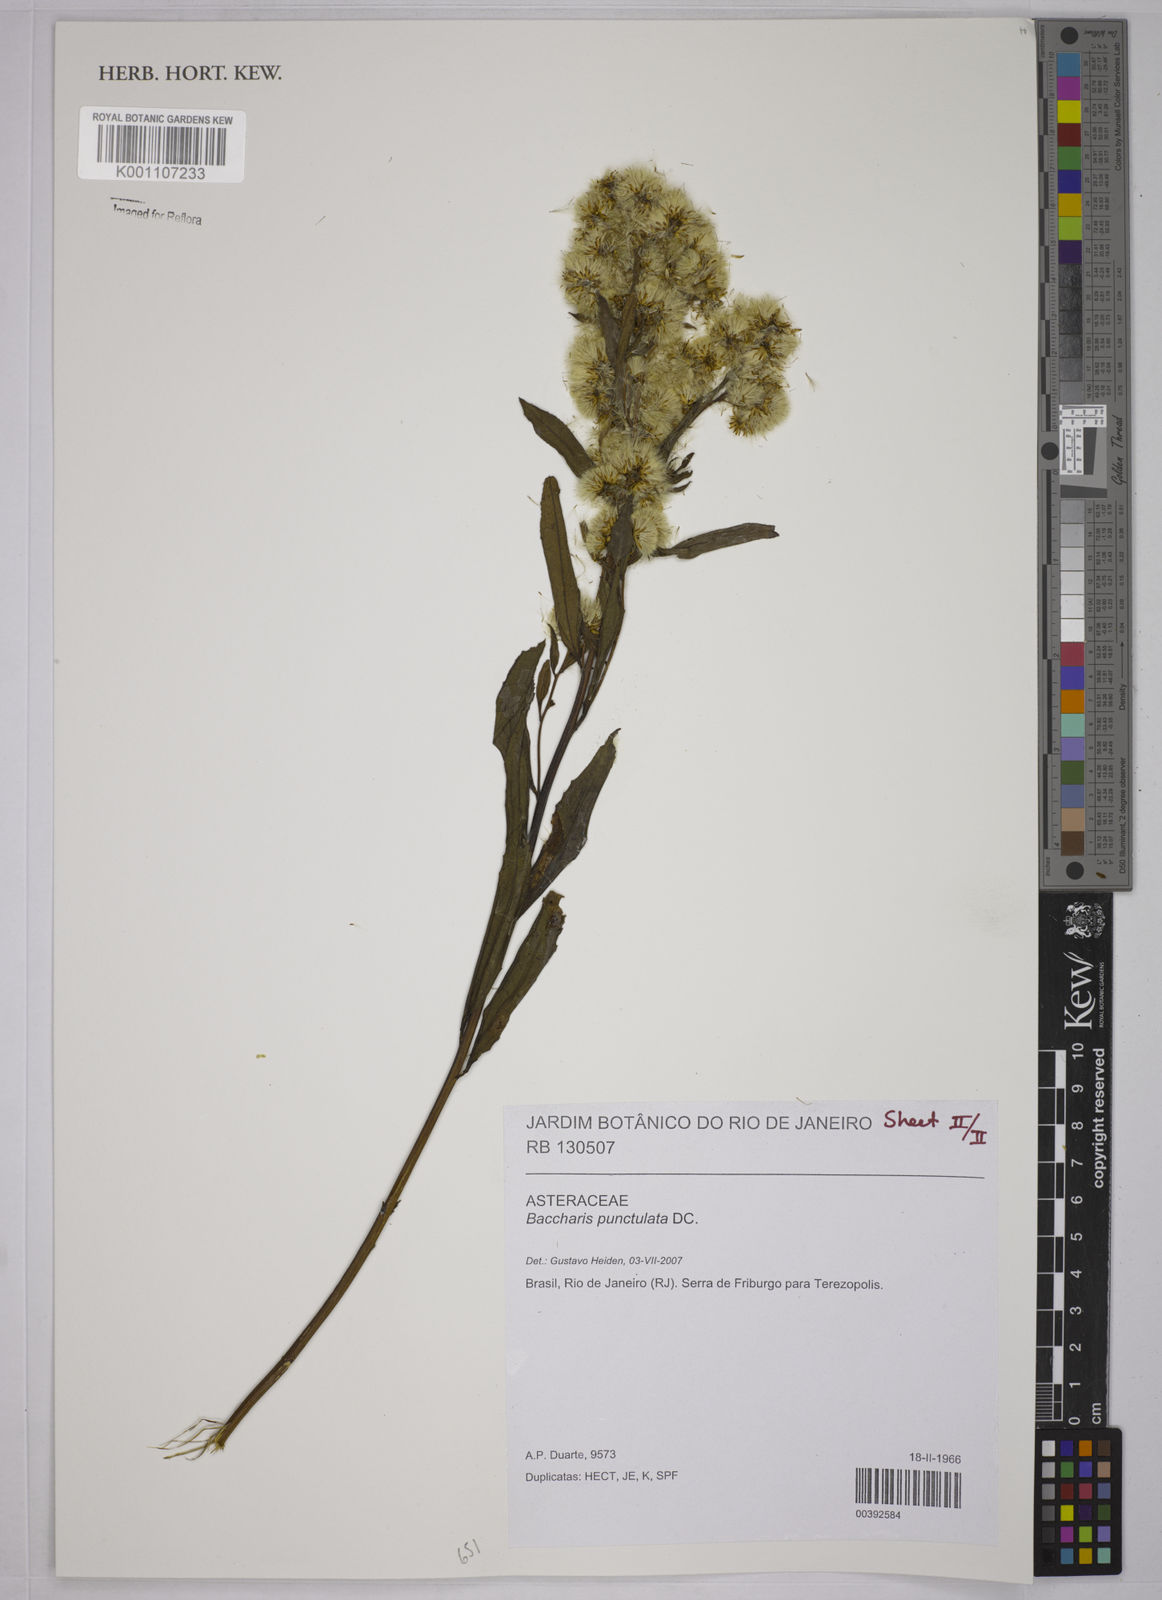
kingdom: Plantae
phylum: Tracheophyta
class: Magnoliopsida
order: Asterales
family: Asteraceae
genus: Baccharis
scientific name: Baccharis punctulata
